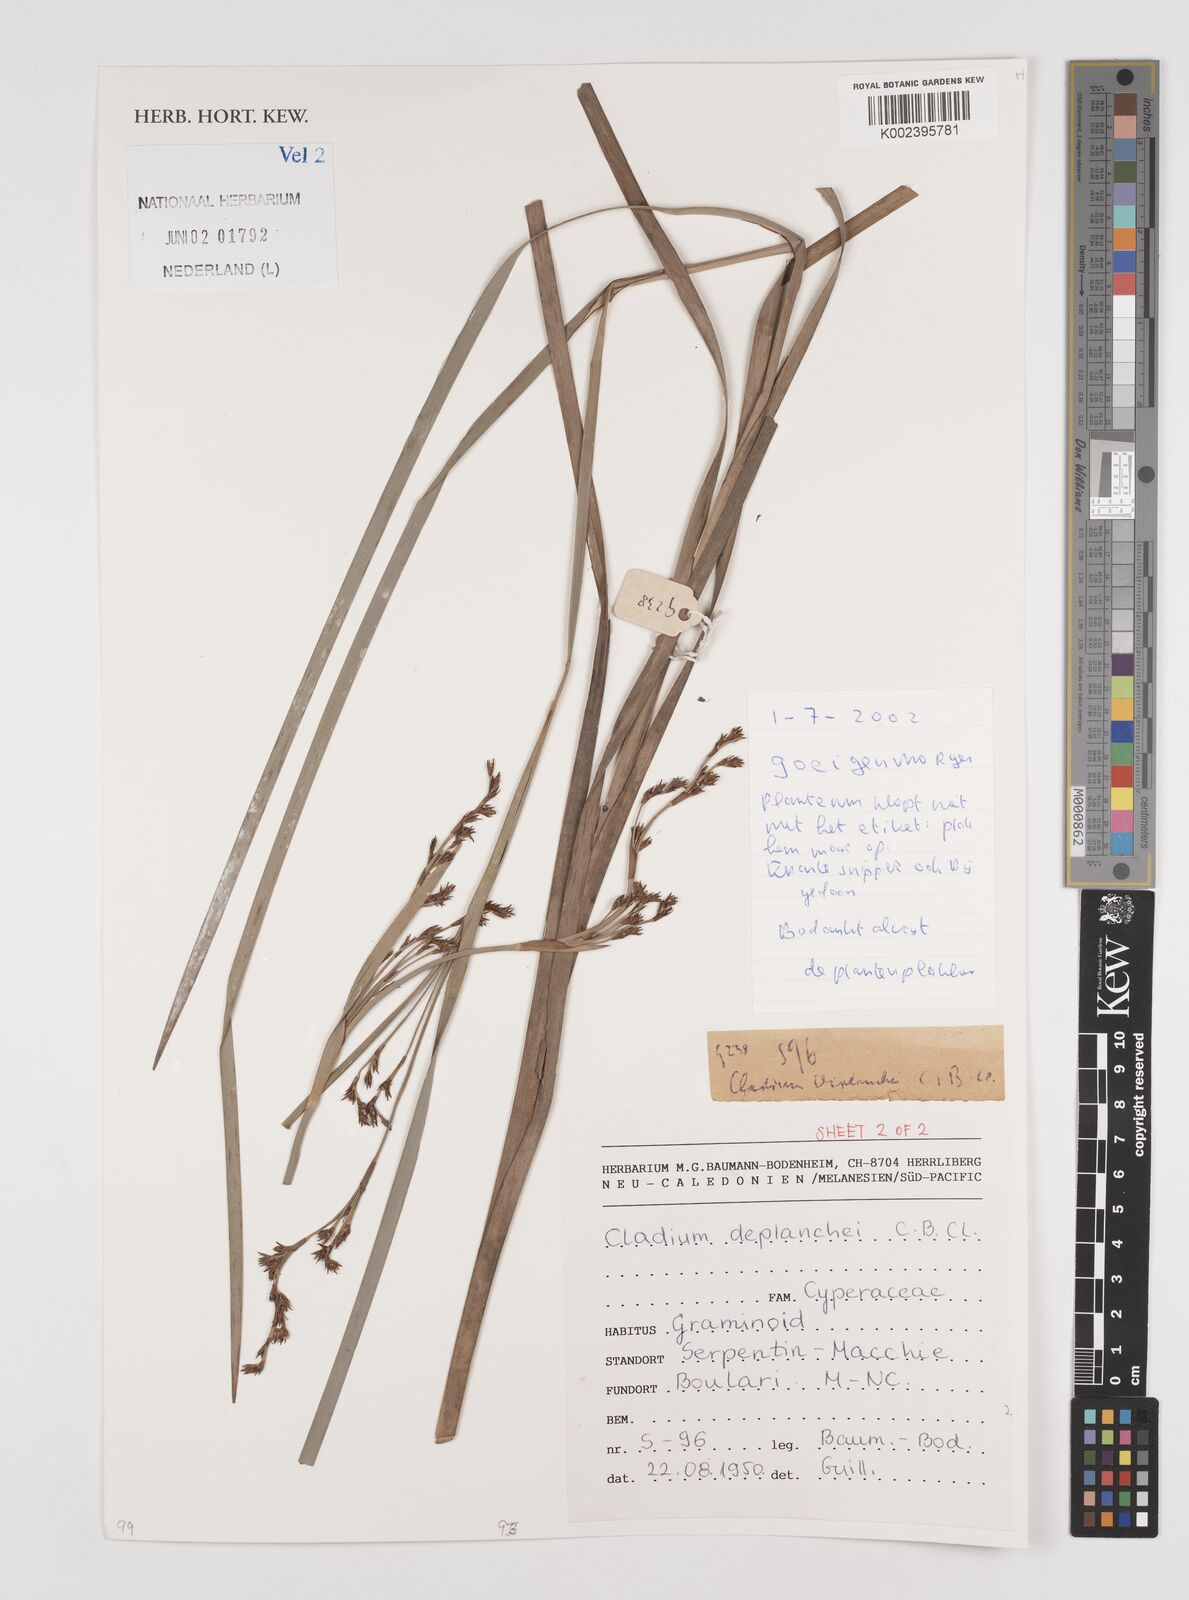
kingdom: Plantae
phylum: Tracheophyta
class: Liliopsida
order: Poales
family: Cyperaceae
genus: Machaerina
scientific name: Machaerina deplanchei
